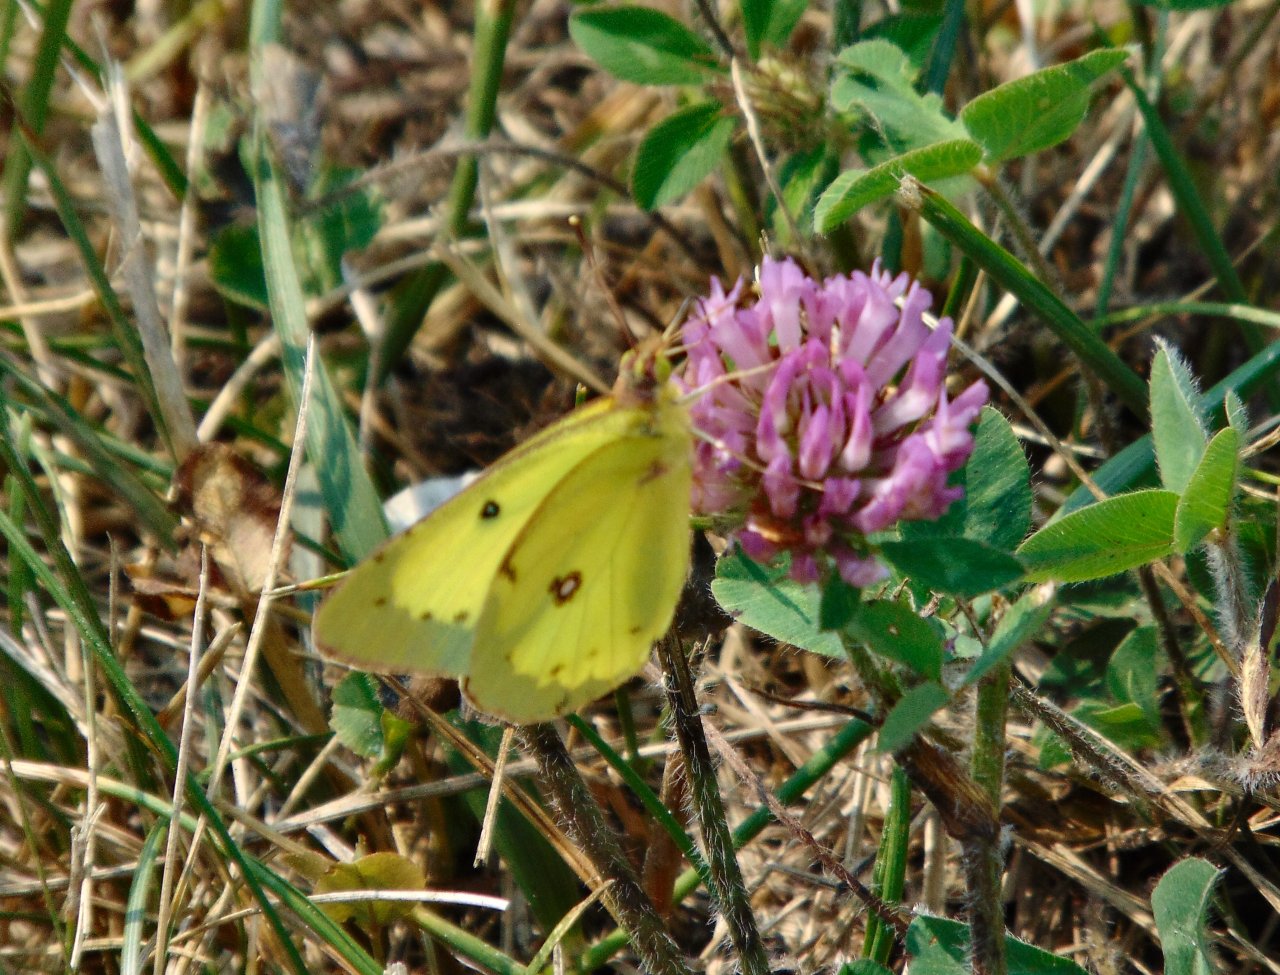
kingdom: Animalia
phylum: Arthropoda
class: Insecta
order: Lepidoptera
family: Pieridae
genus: Colias
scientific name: Colias philodice
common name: Clouded Sulphur
